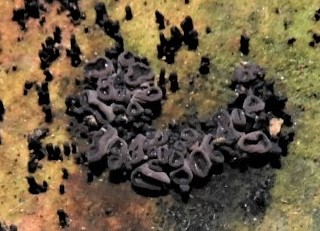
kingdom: Fungi
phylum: Ascomycota
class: Leotiomycetes
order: Helotiales
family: Gelatinodiscaceae
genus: Ascocoryne
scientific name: Ascocoryne
